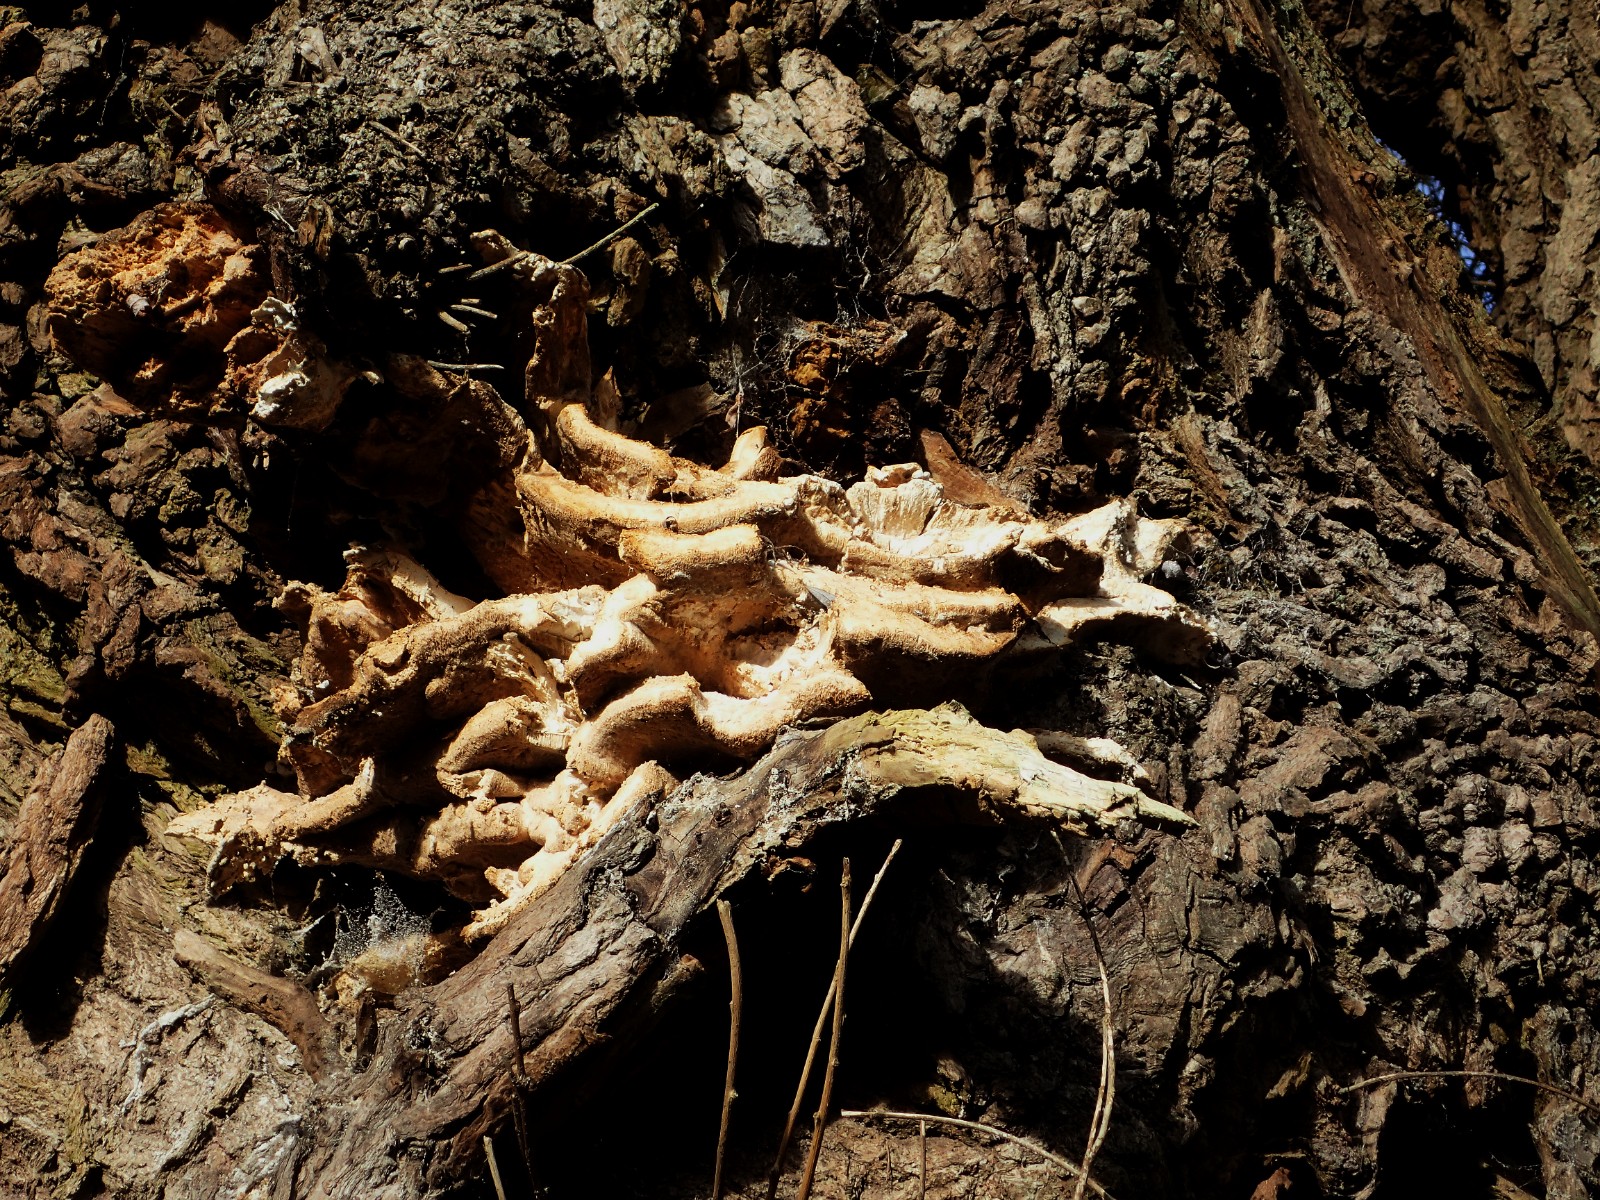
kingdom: Fungi
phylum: Basidiomycota
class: Agaricomycetes
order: Polyporales
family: Laetiporaceae
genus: Laetiporus
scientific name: Laetiporus sulphureus
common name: svovlporesvamp
